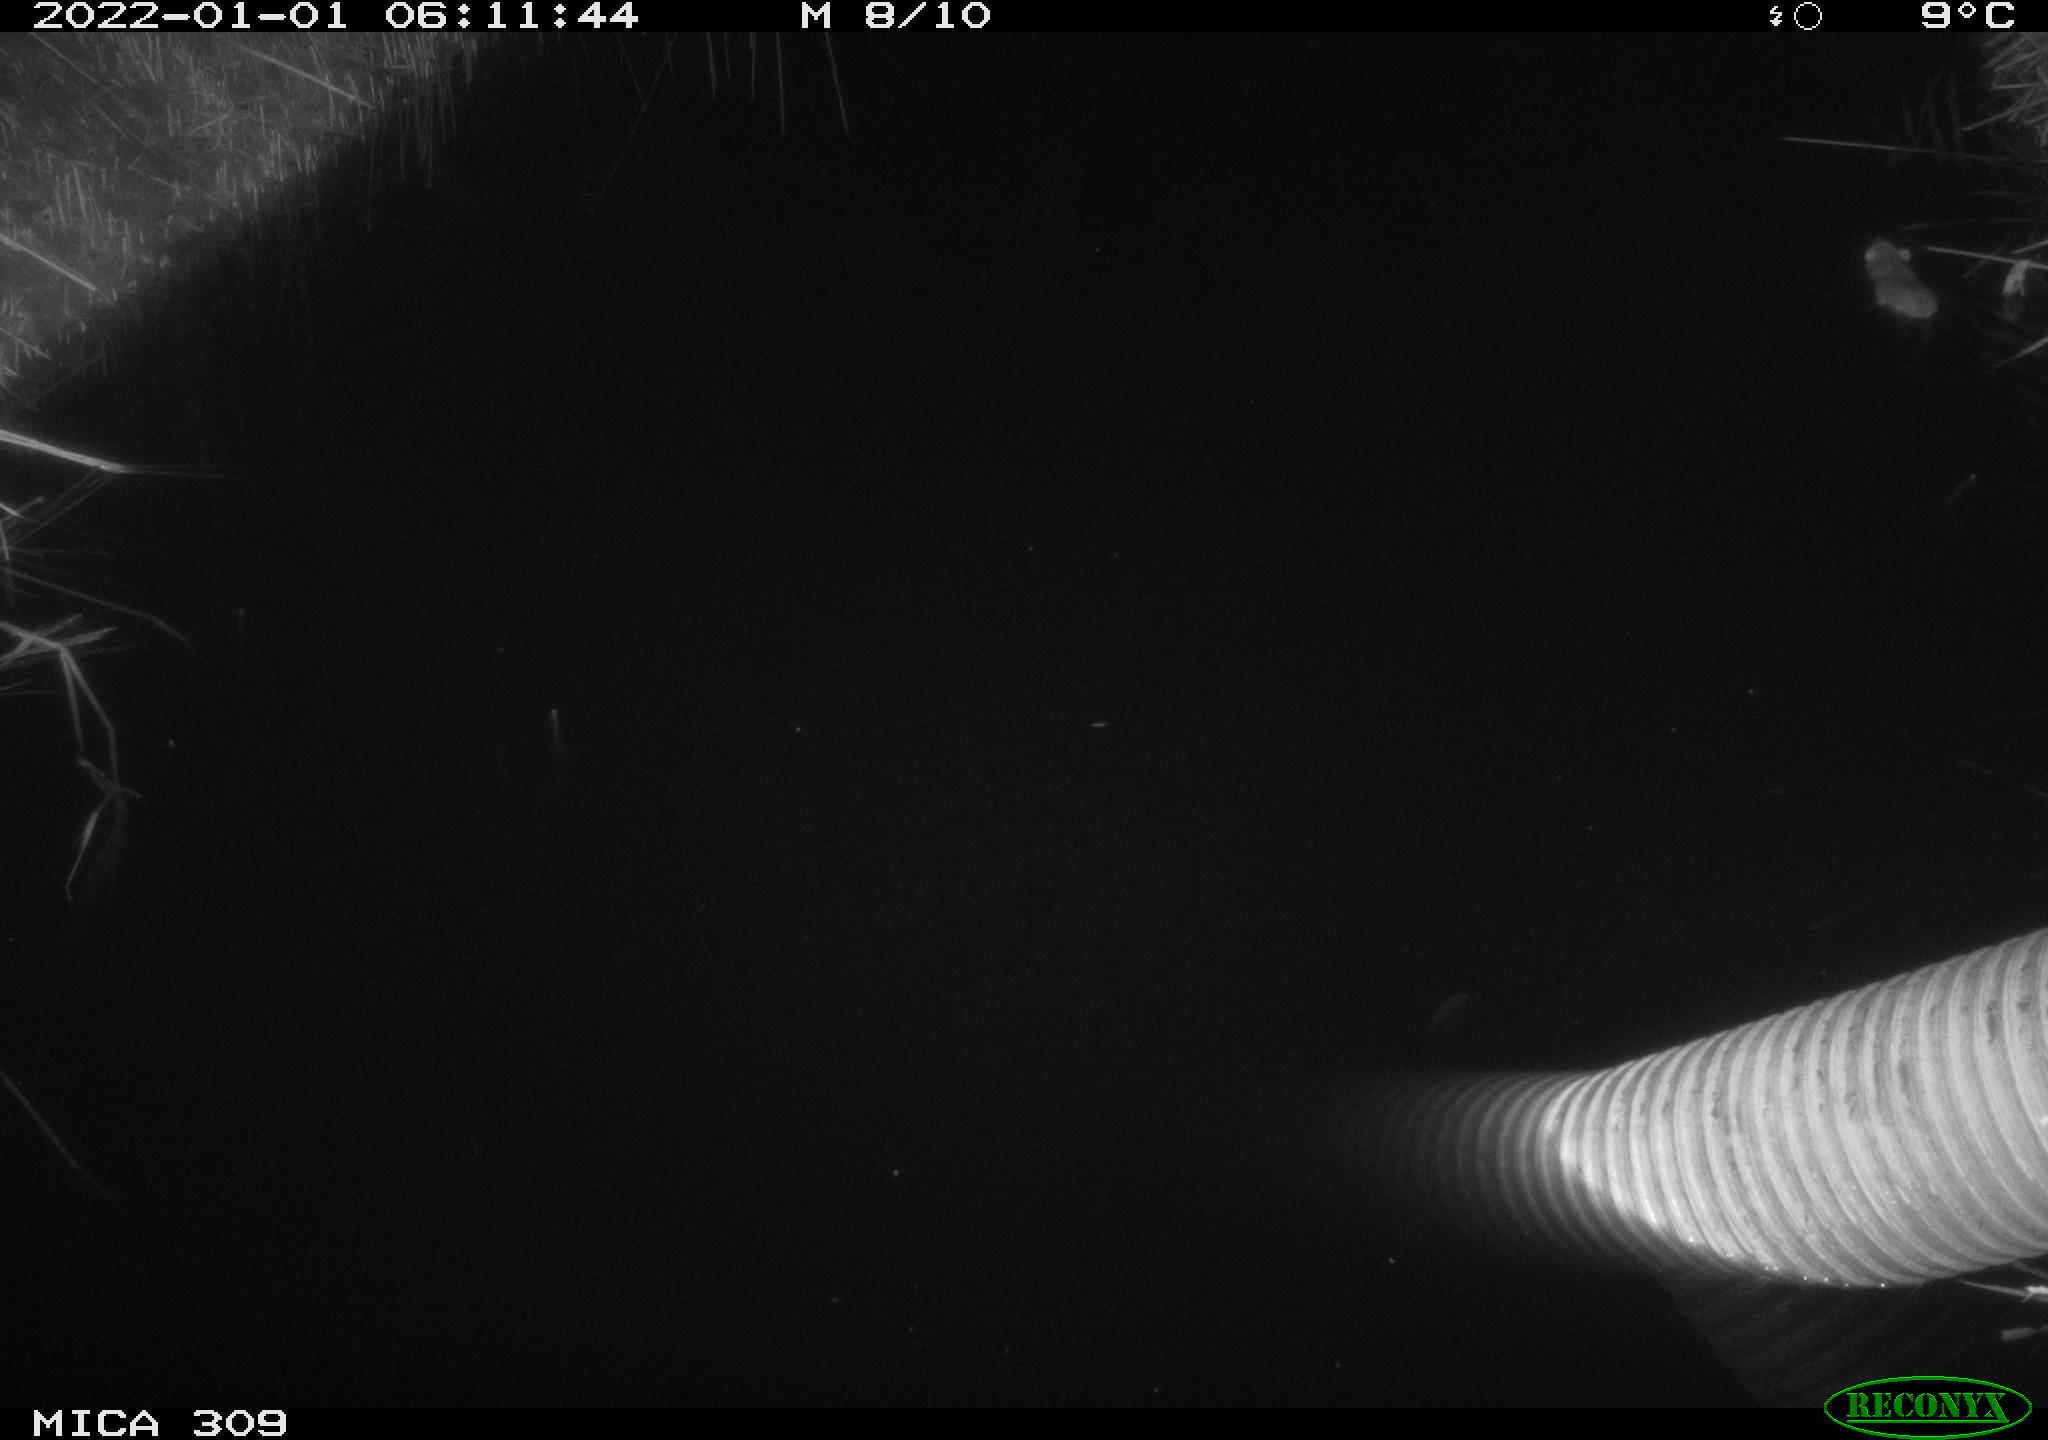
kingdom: Animalia
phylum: Chordata
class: Mammalia
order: Rodentia
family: Muridae
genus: Rattus
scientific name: Rattus norvegicus
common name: Brown rat
